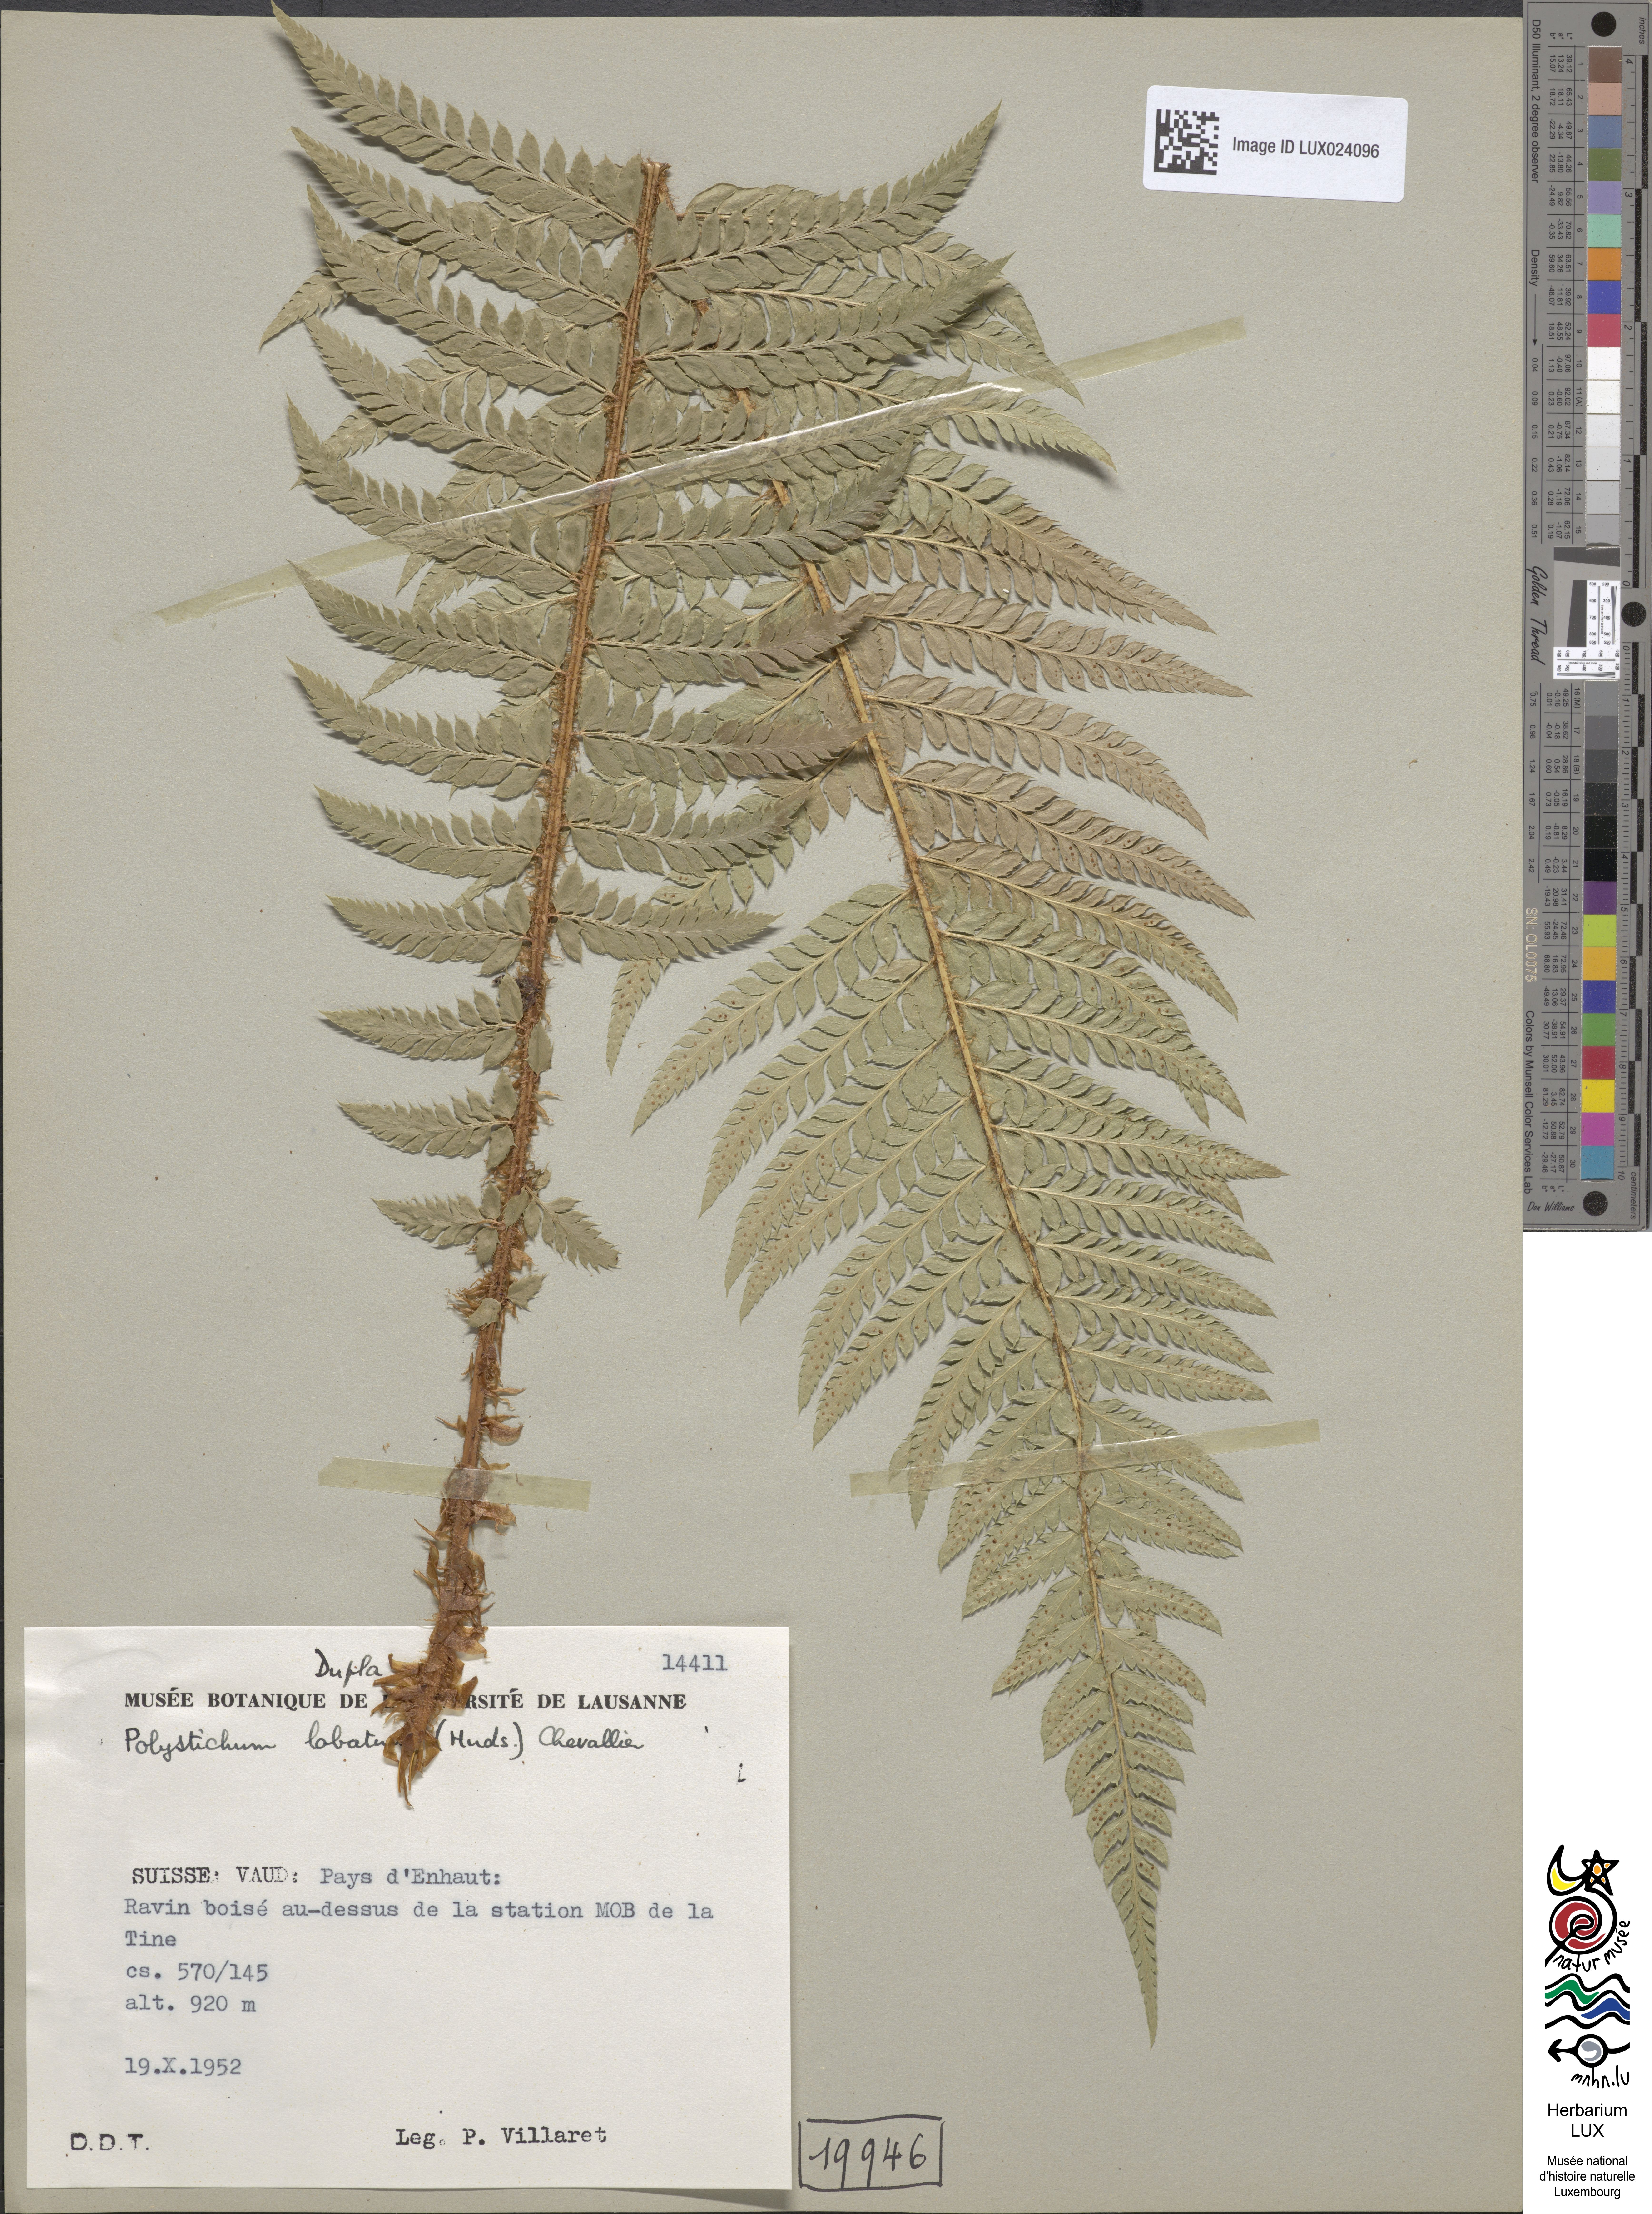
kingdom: Plantae
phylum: Tracheophyta
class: Polypodiopsida
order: Polypodiales
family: Dryopteridaceae
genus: Polystichum
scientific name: Polystichum aculeatum
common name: Hard shield-fern
